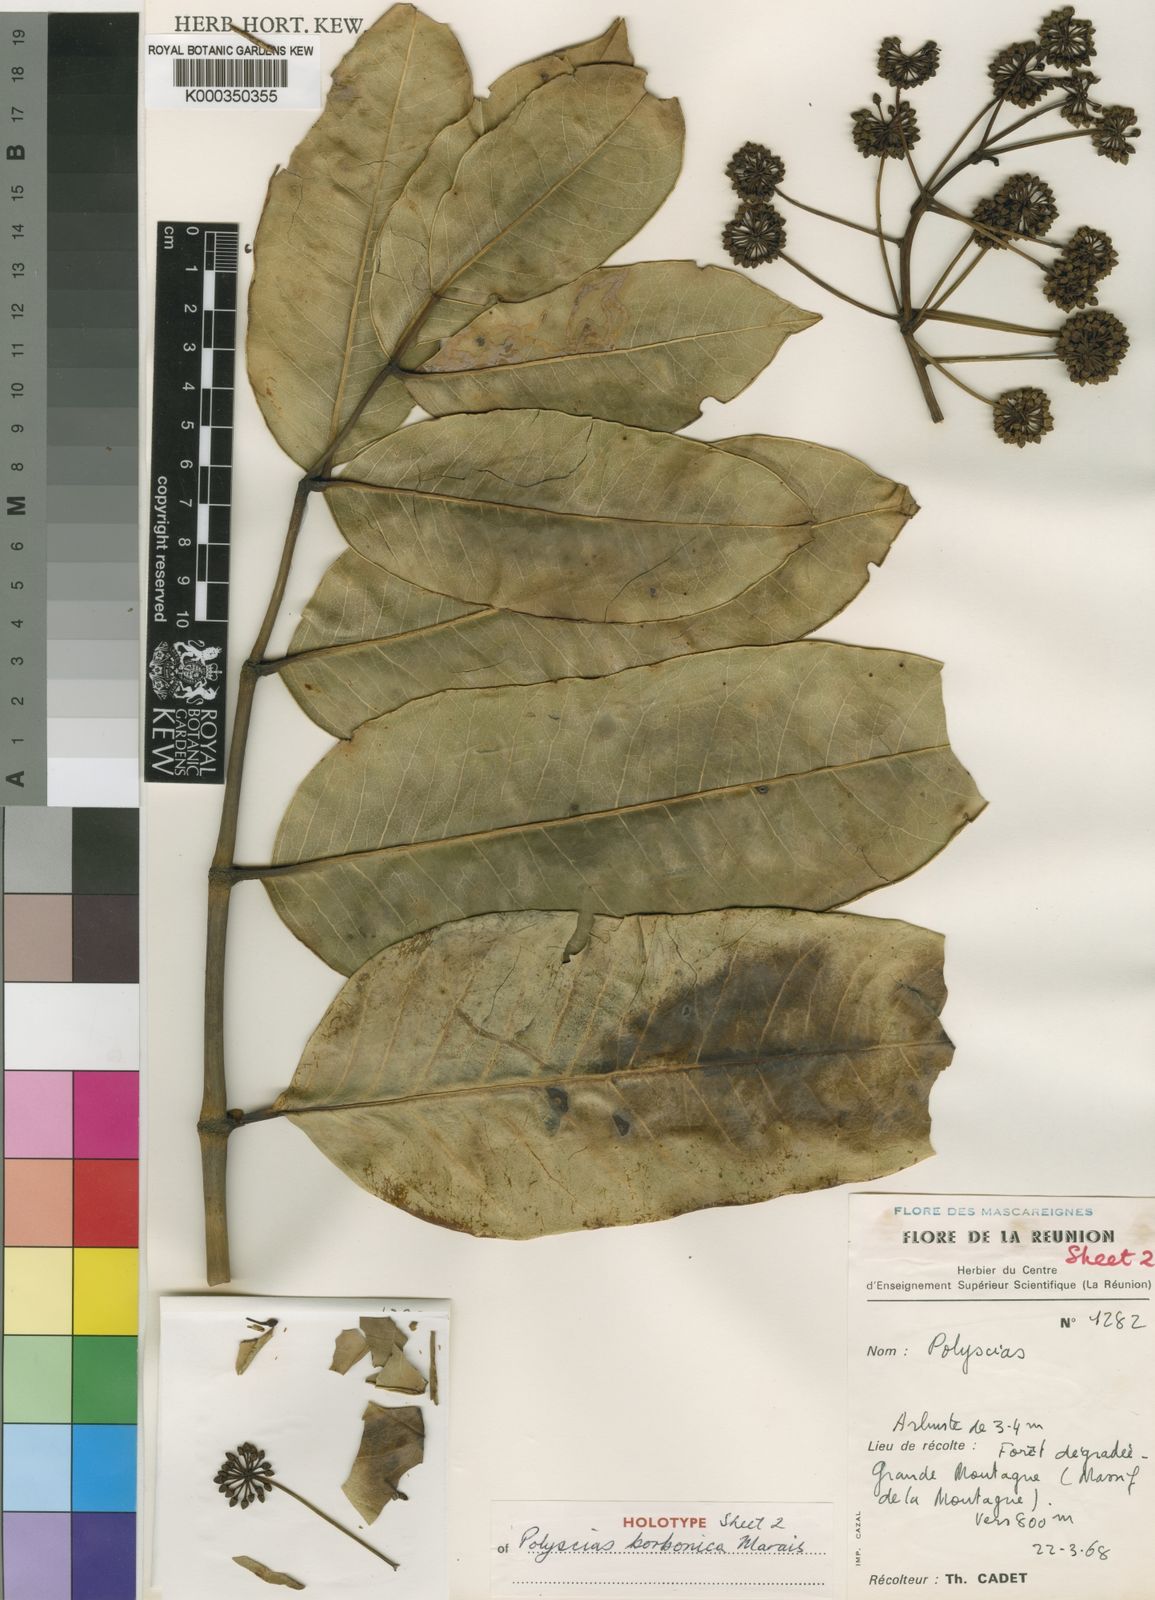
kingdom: Plantae
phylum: Tracheophyta
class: Magnoliopsida
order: Apiales
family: Araliaceae
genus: Polyscias
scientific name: Polyscias borbonica
